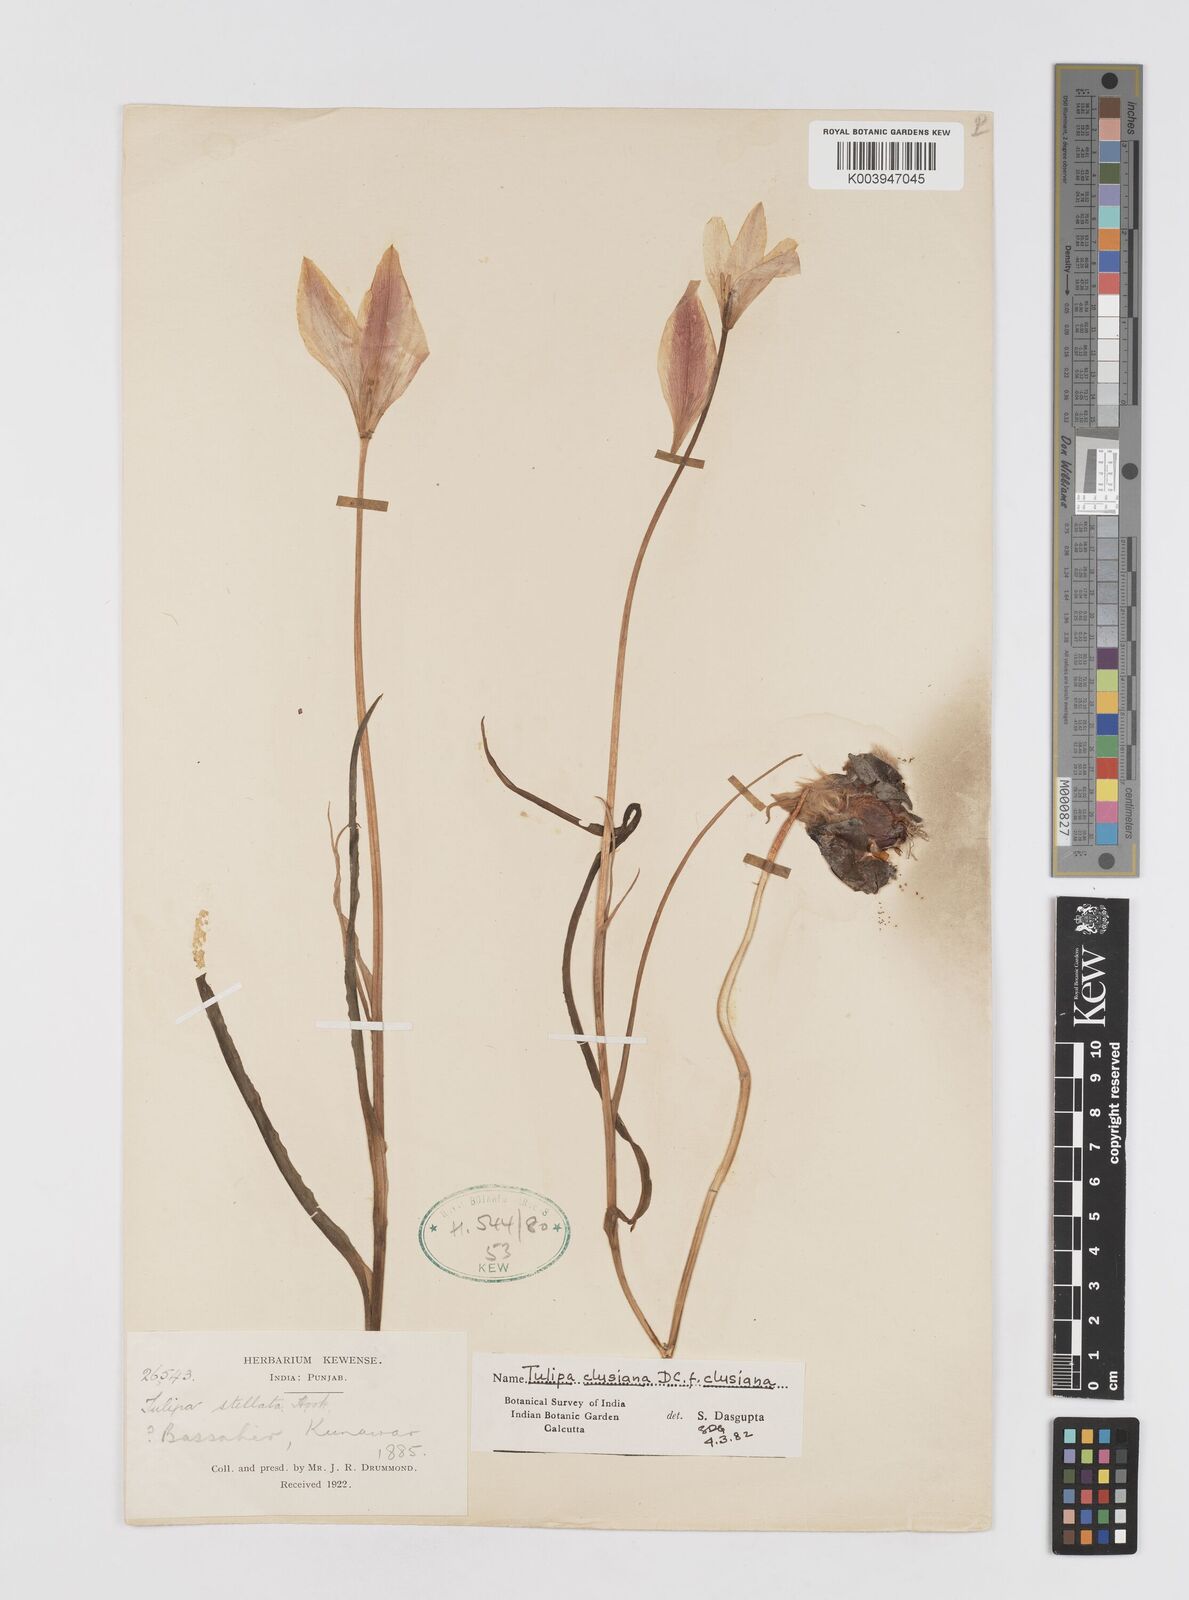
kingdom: Plantae
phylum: Tracheophyta
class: Liliopsida
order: Liliales
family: Liliaceae
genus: Tulipa
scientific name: Tulipa clusiana
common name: Lady tulip
